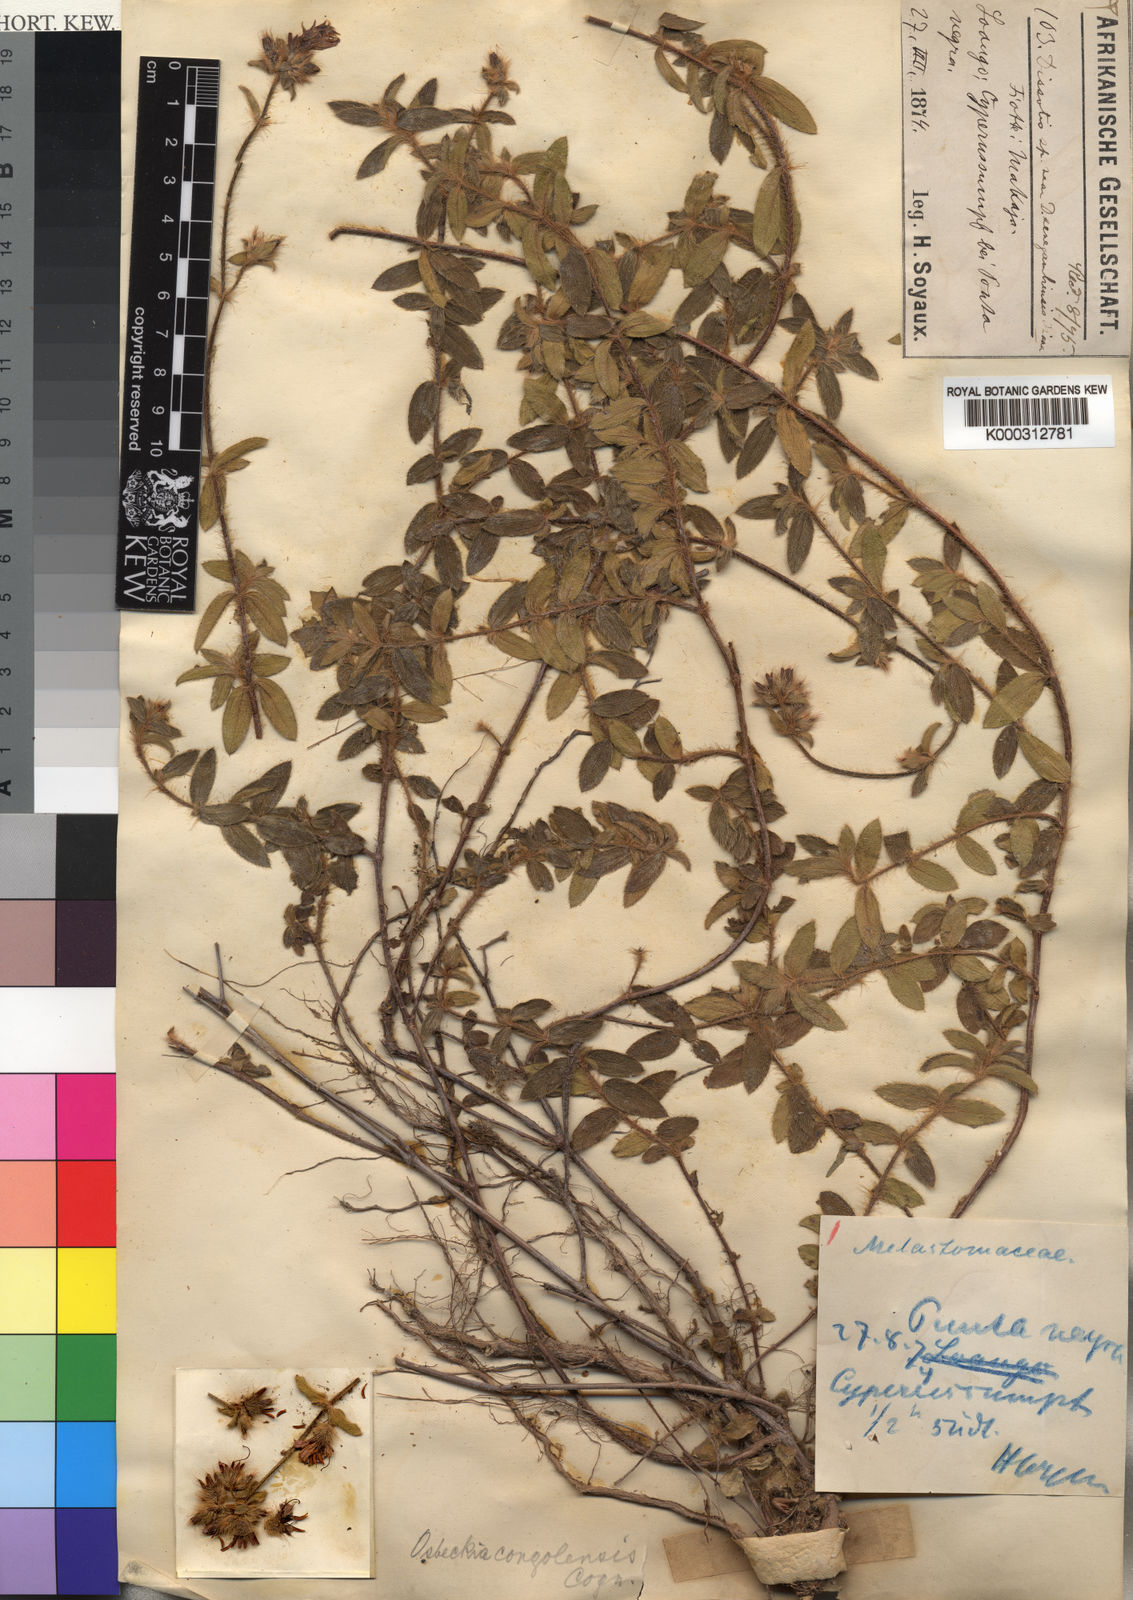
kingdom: Plantae
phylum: Tracheophyta
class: Magnoliopsida
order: Myrtales
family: Melastomataceae
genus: Osbeckia
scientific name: Osbeckia
